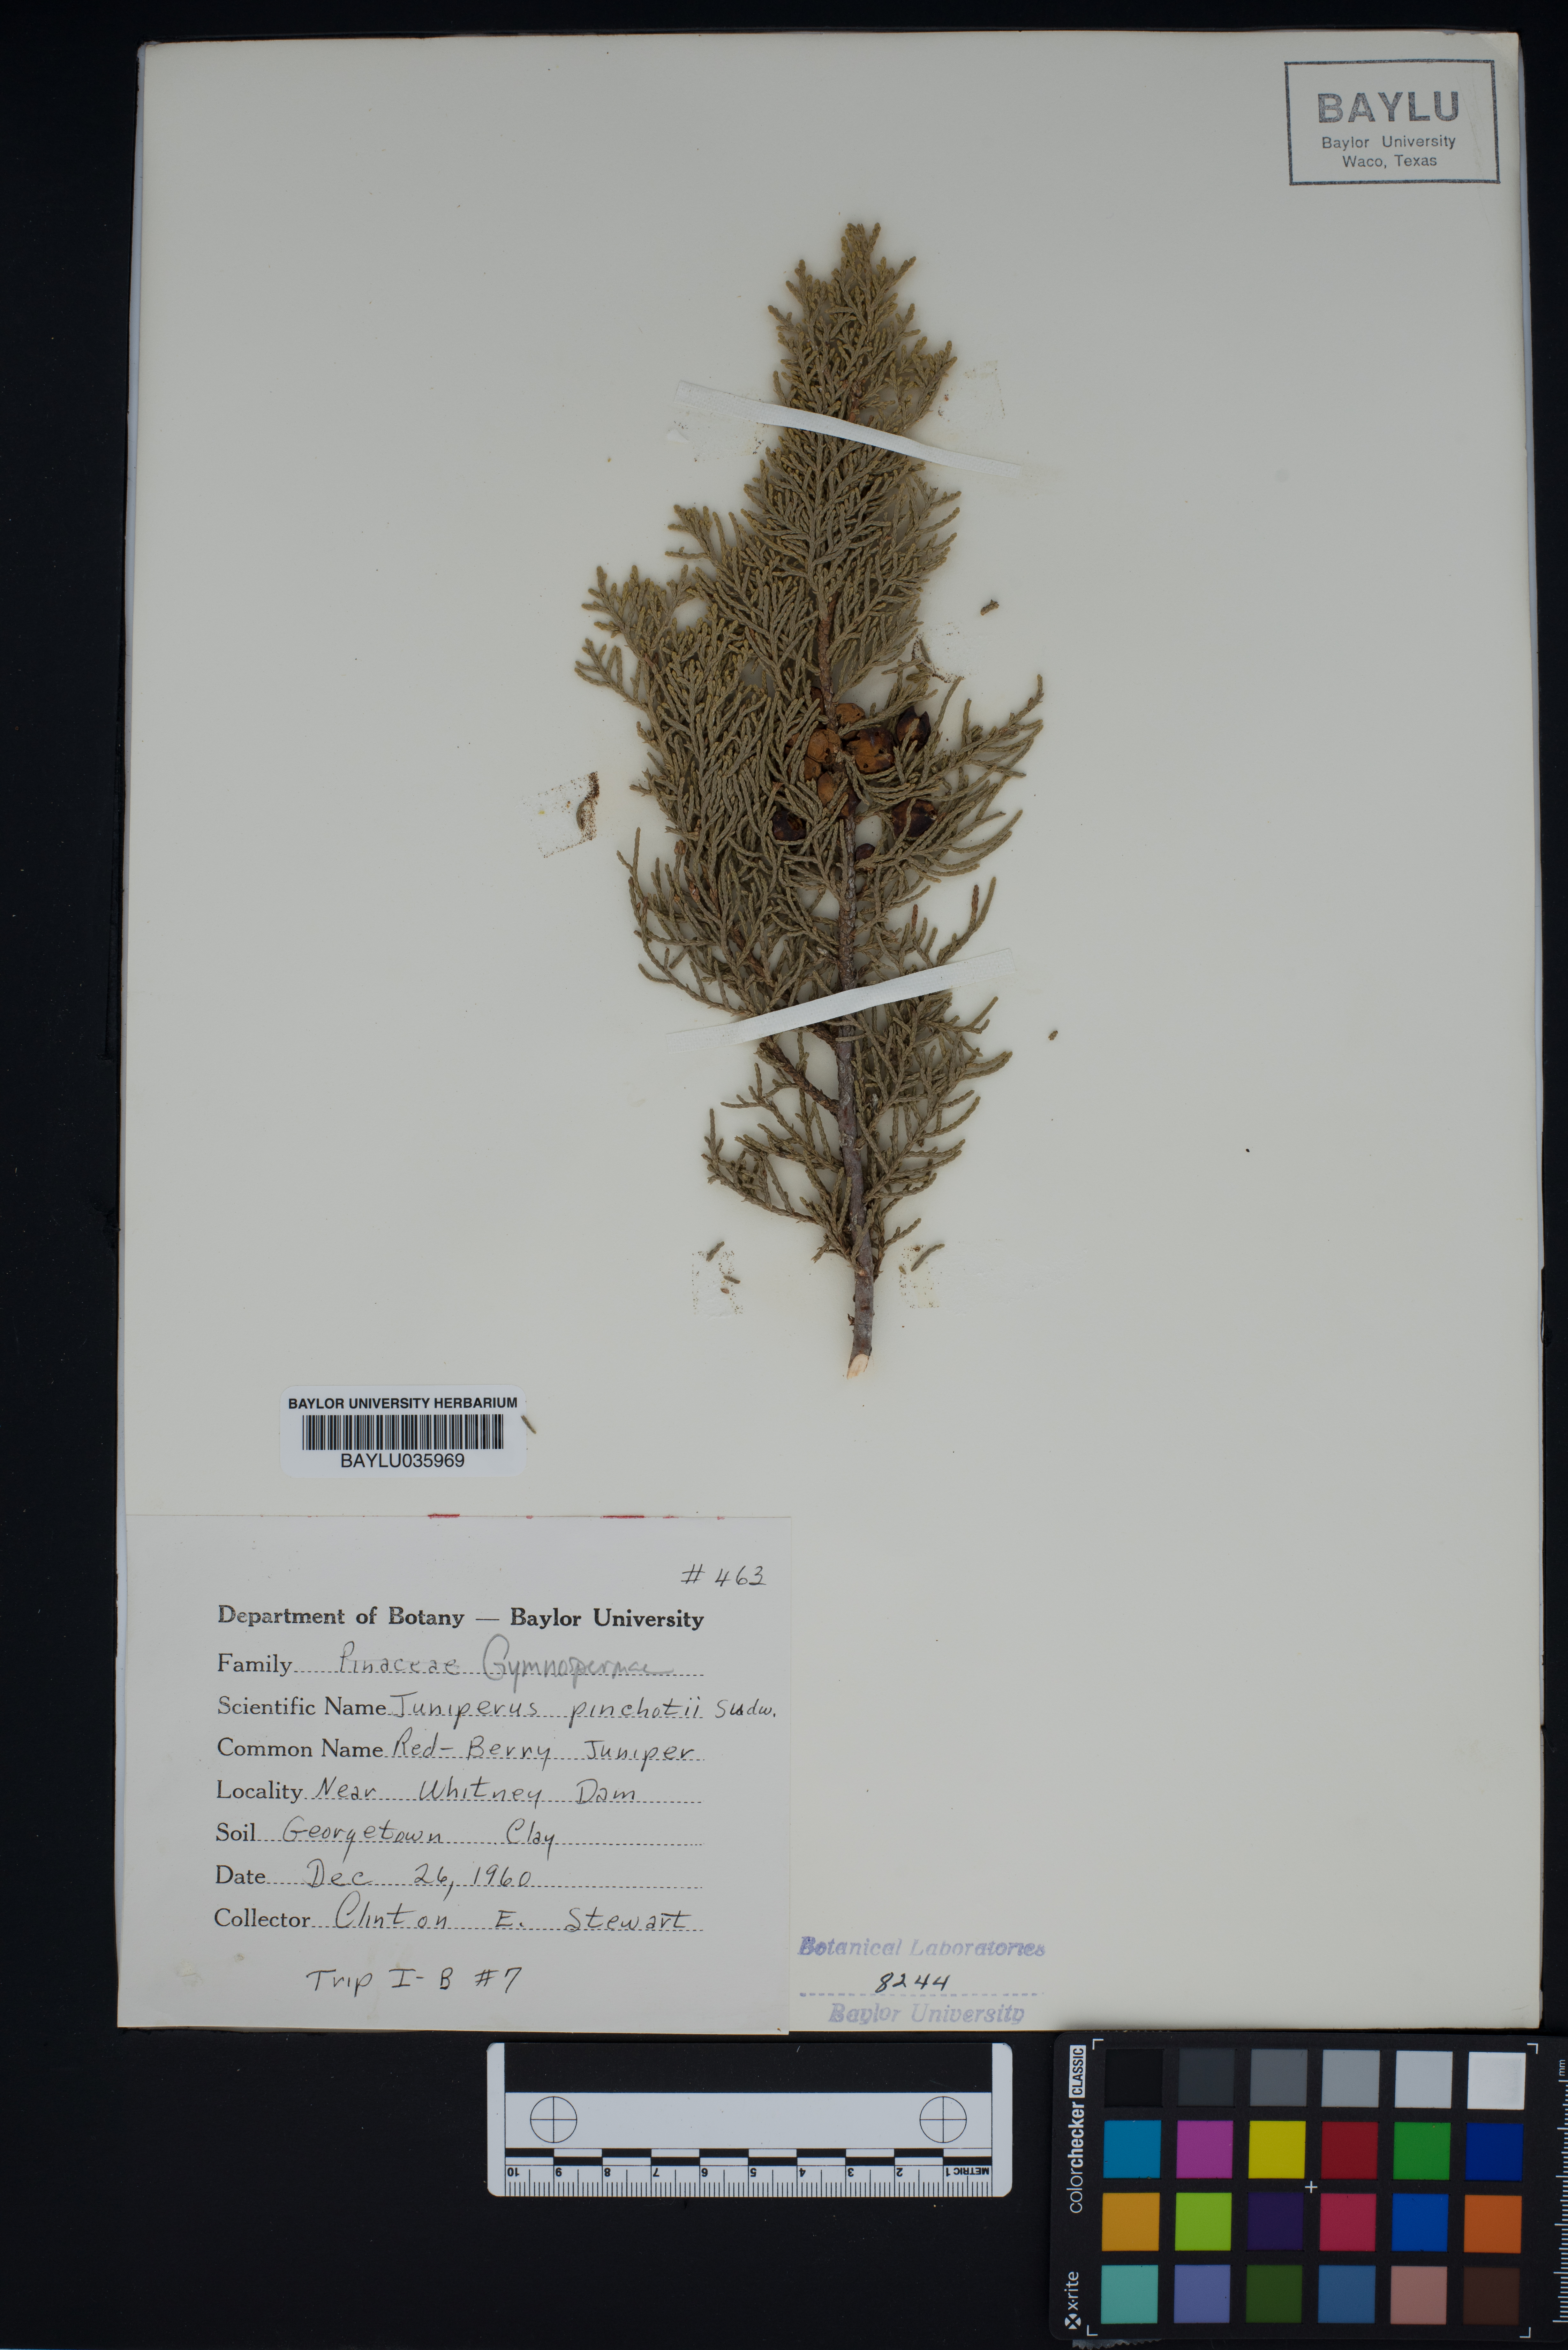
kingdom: Plantae
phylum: Tracheophyta
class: Pinopsida
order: Pinales
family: Cupressaceae
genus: Juniperus
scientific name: Juniperus pinchotii
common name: Pinchot juniper
